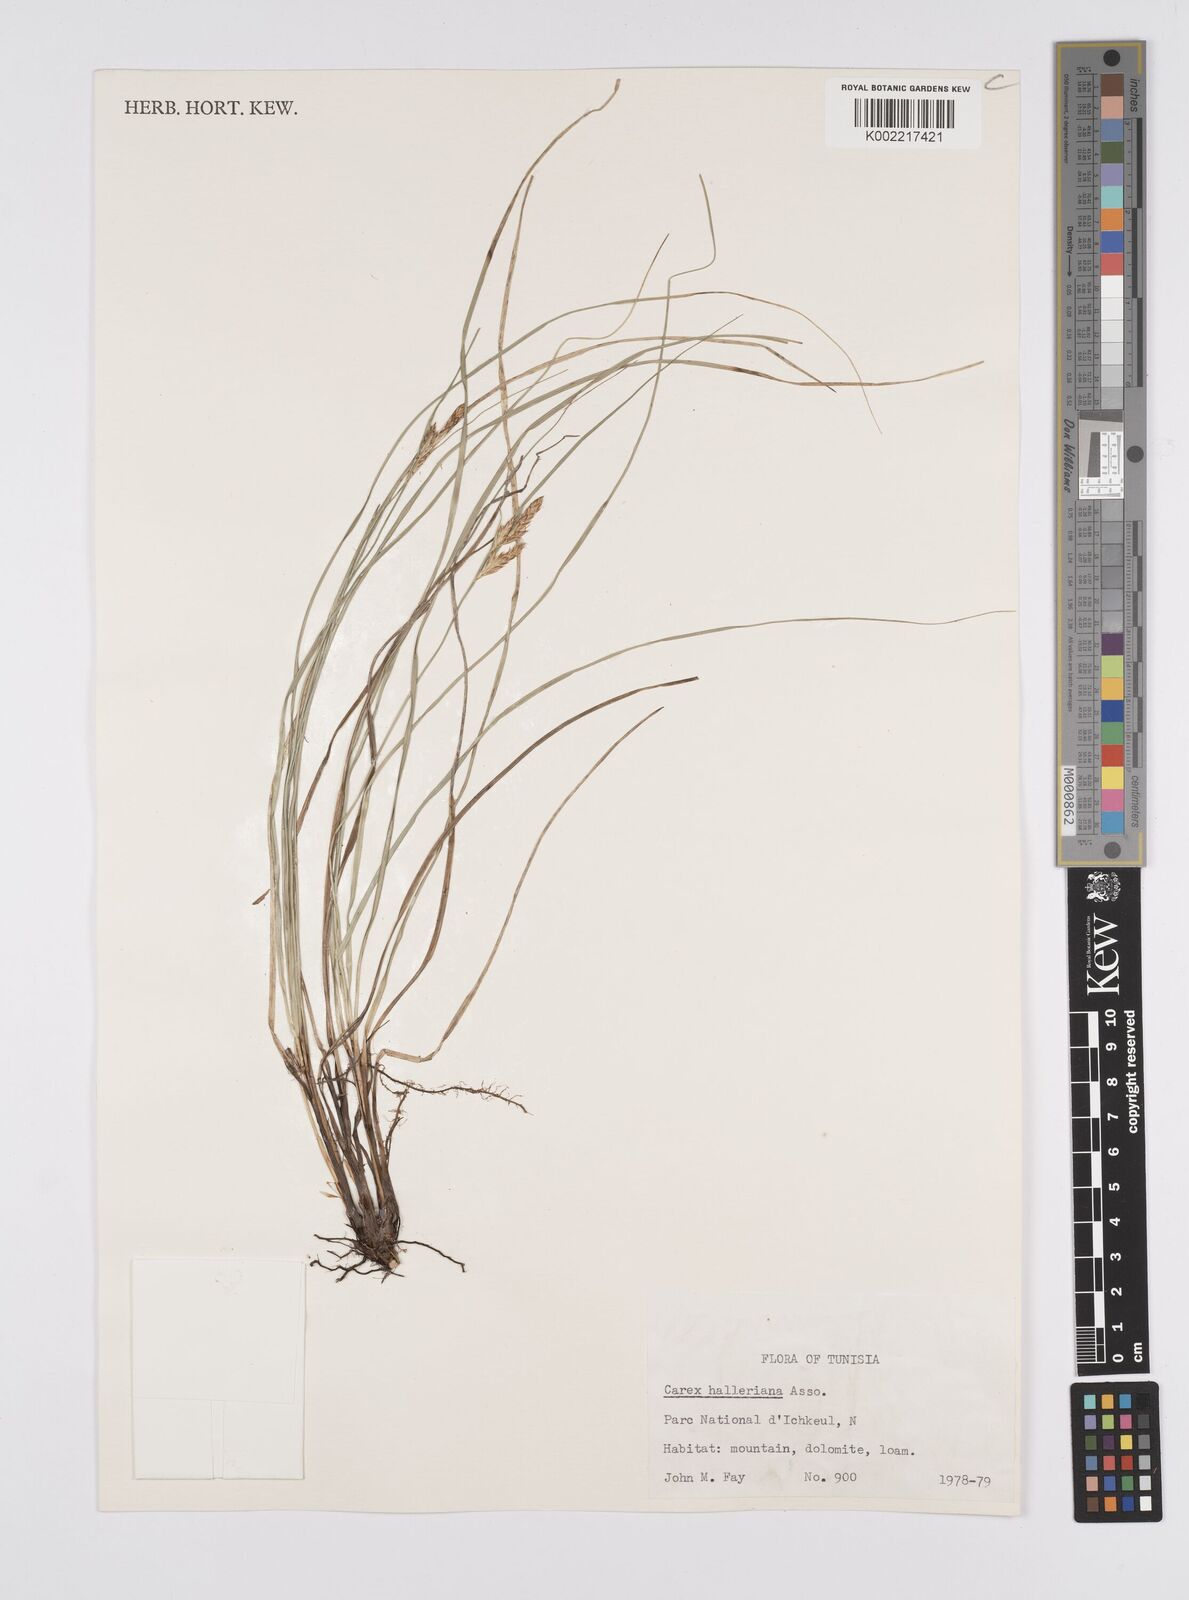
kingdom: Plantae
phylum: Tracheophyta
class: Liliopsida
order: Poales
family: Cyperaceae
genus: Carex
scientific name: Carex halleriana
